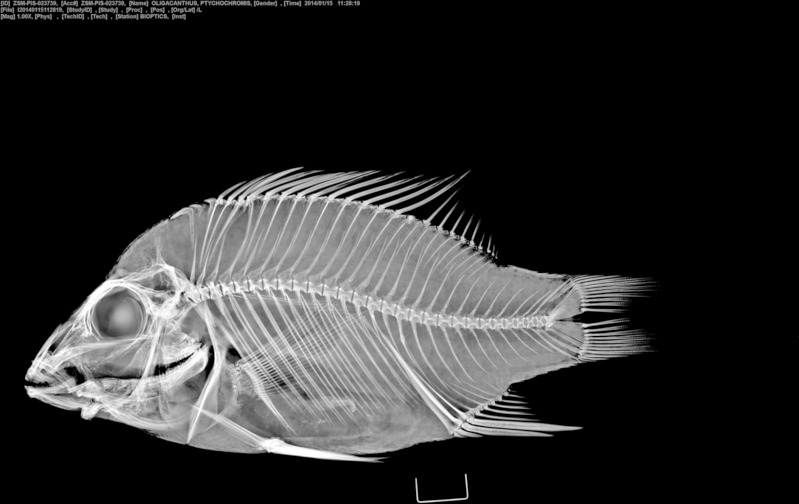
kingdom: Animalia
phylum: Chordata
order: Perciformes
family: Cichlidae
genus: Ptychochromis
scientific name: Ptychochromis oligacanthus
